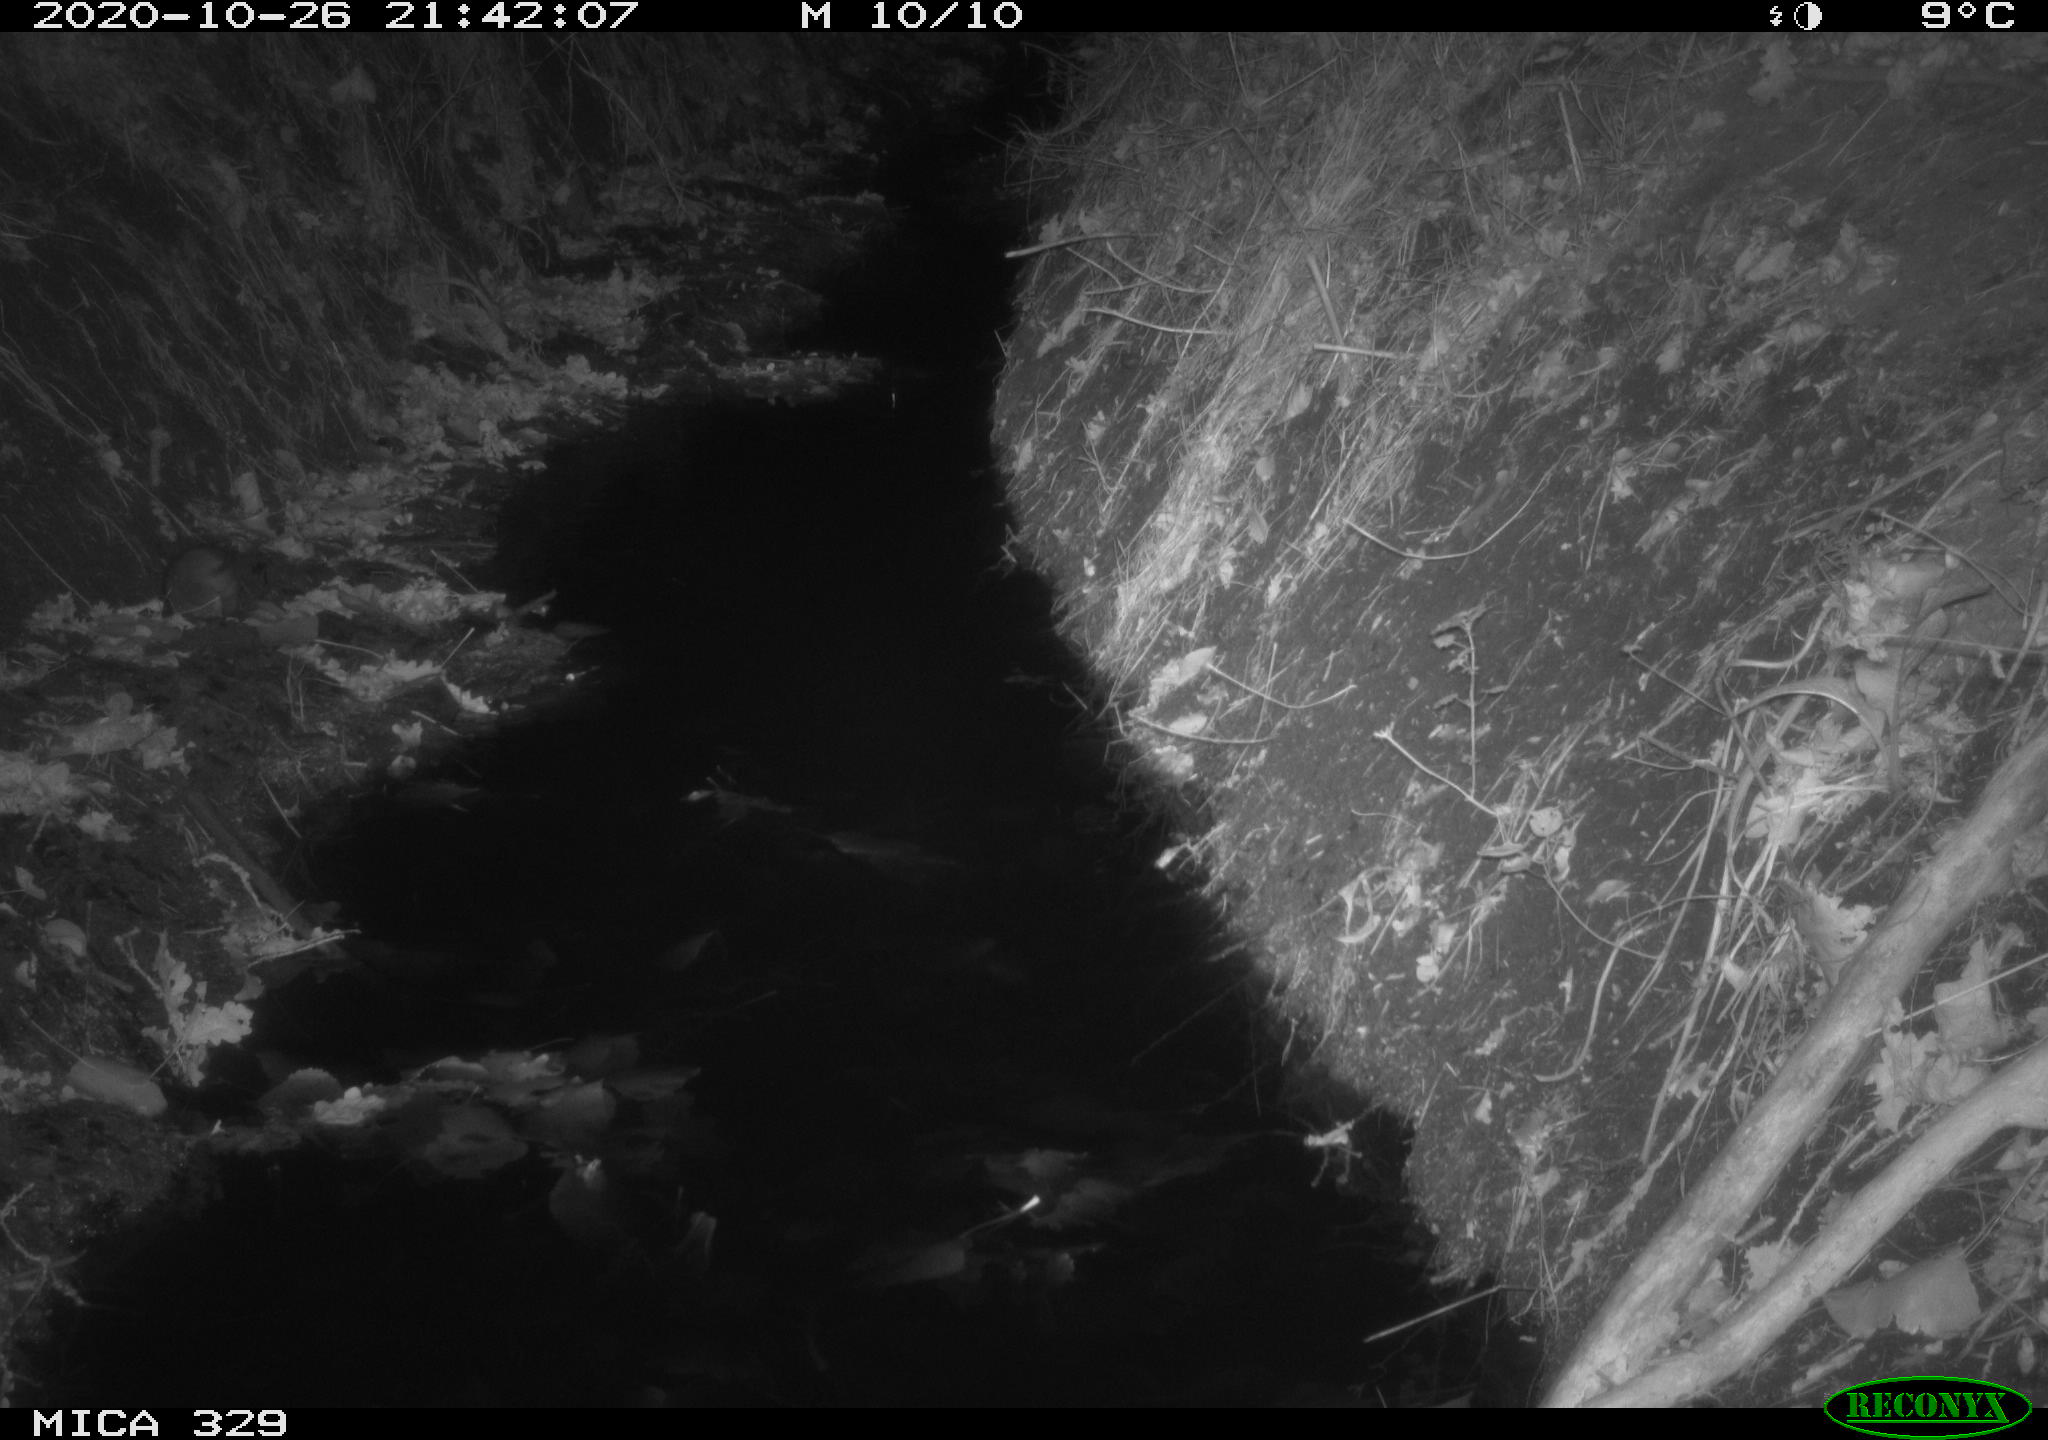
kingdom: Animalia
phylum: Chordata
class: Mammalia
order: Rodentia
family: Muridae
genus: Rattus
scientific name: Rattus norvegicus
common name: Brown rat
